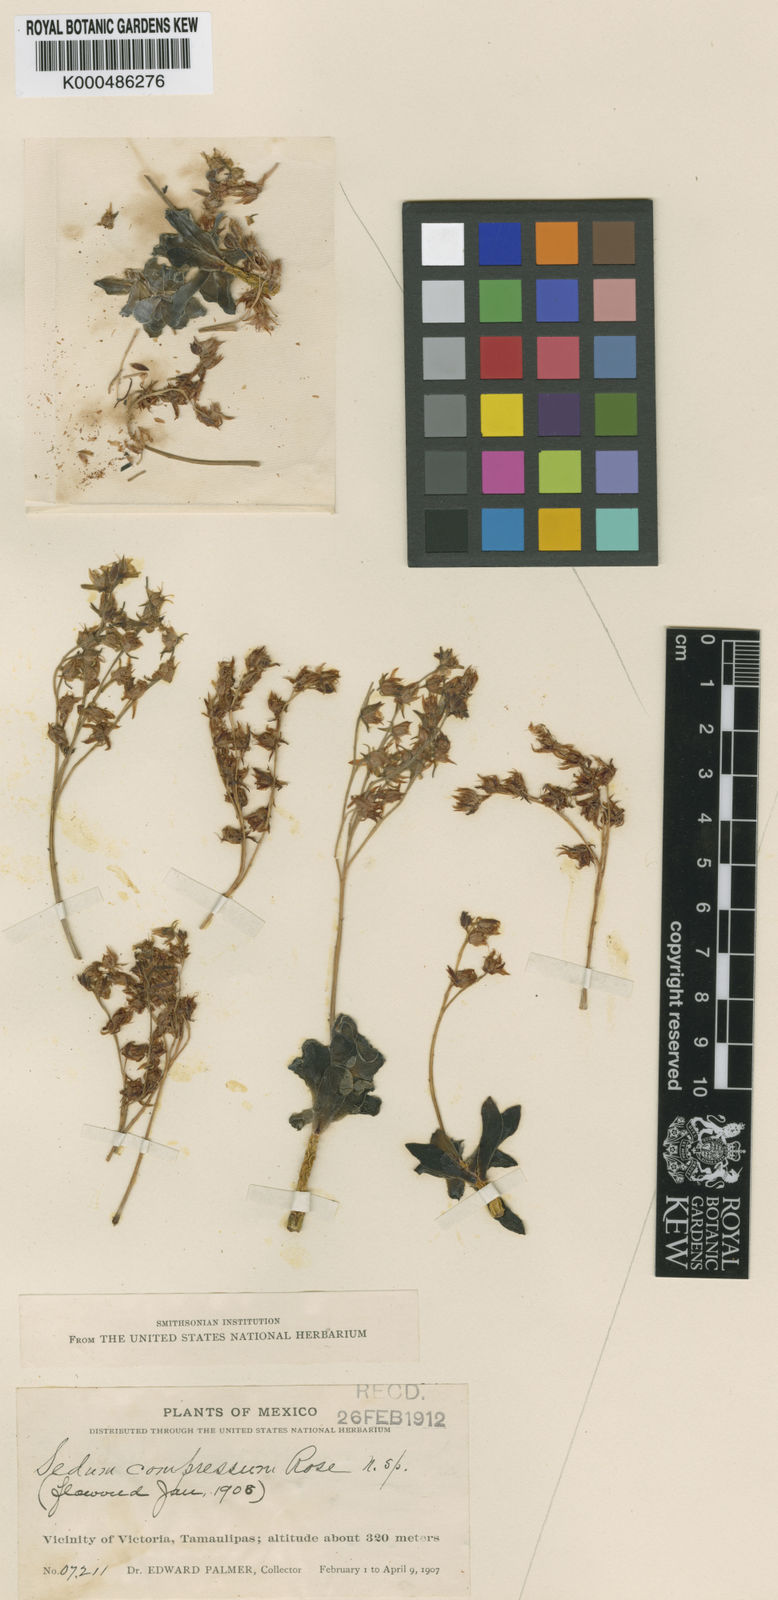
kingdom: Plantae
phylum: Tracheophyta
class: Magnoliopsida
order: Saxifragales
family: Crassulaceae
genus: Sedum
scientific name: Sedum palmeri
